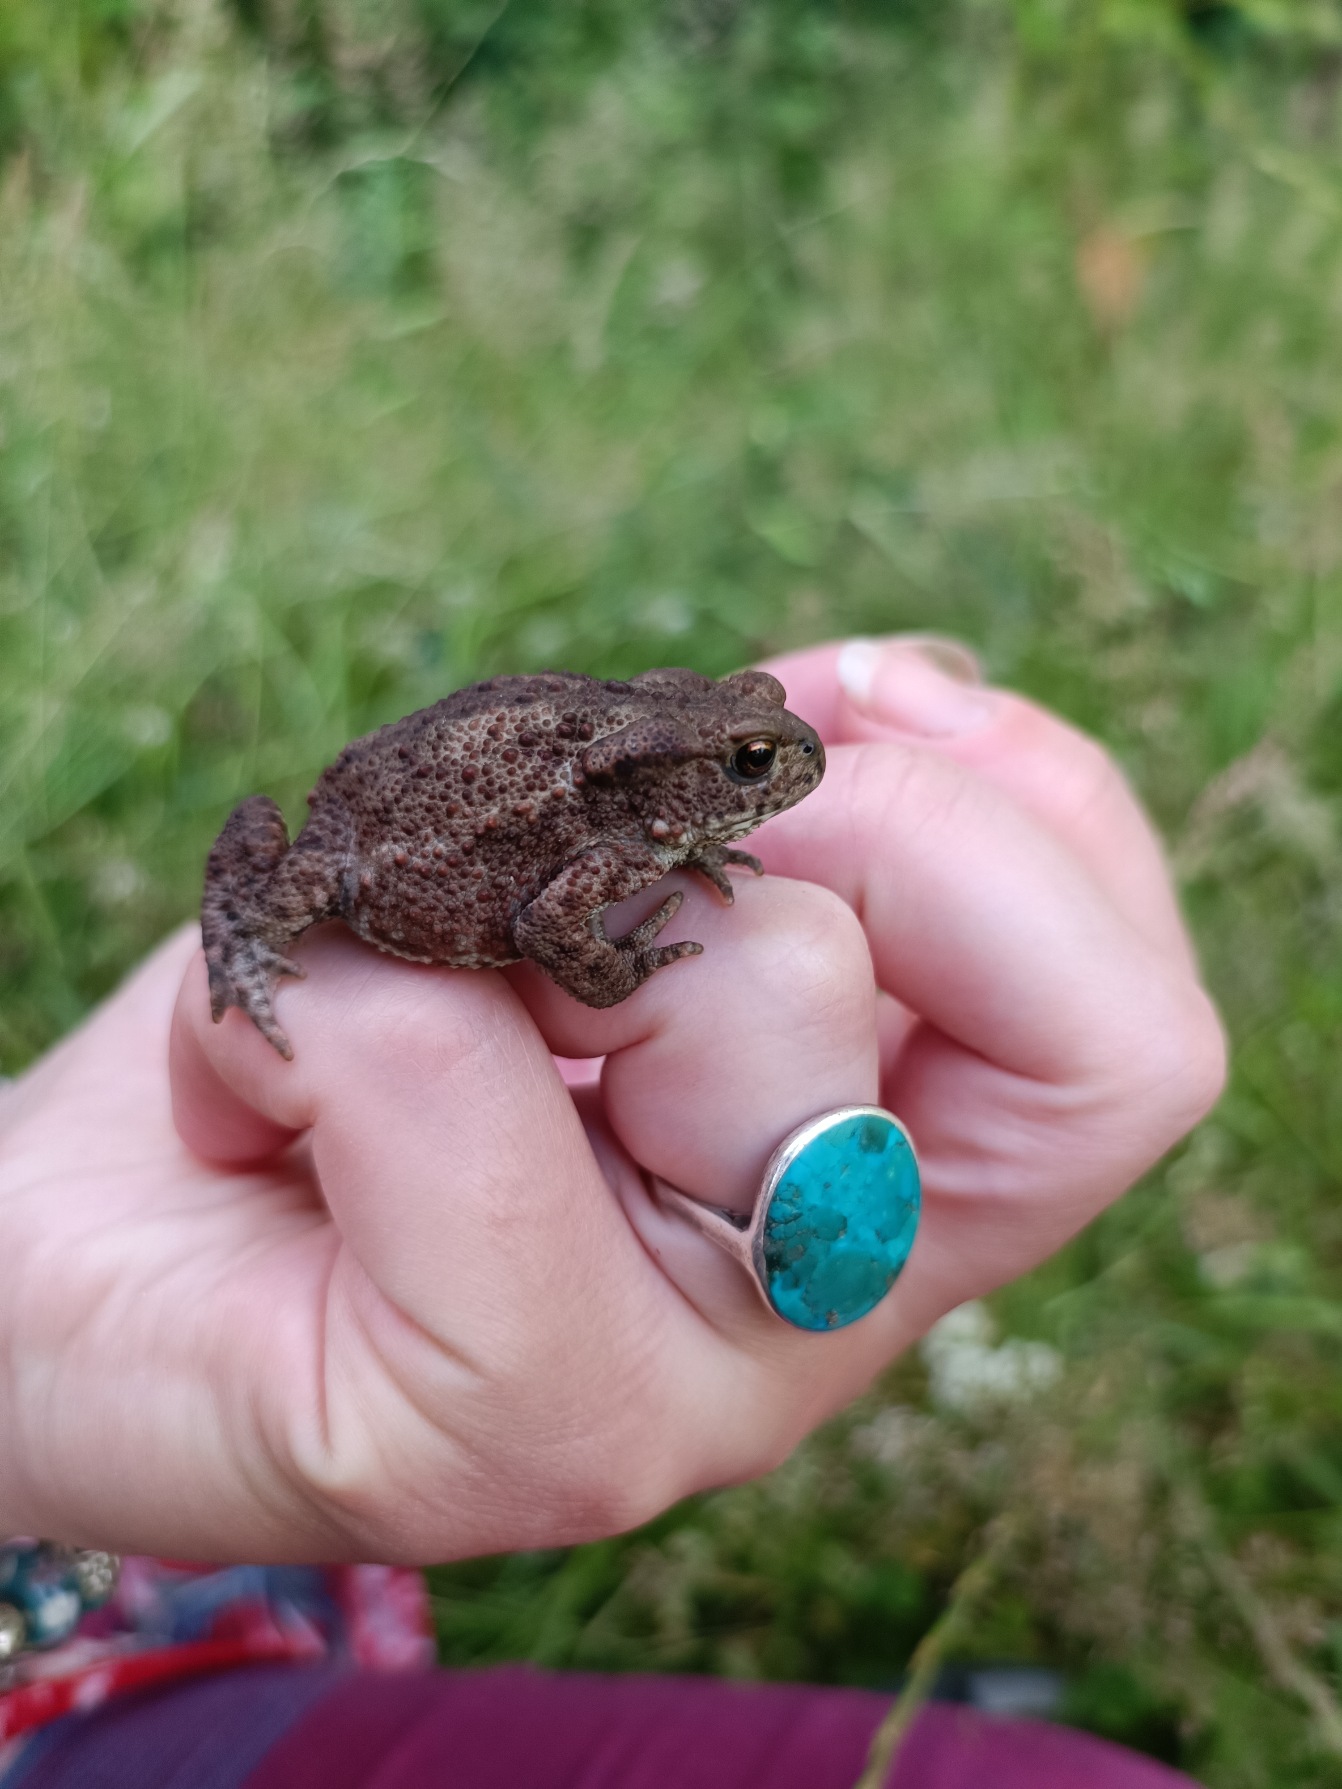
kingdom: Animalia
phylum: Chordata
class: Amphibia
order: Anura
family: Bufonidae
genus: Bufo
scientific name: Bufo bufo
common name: Skrubtudse
